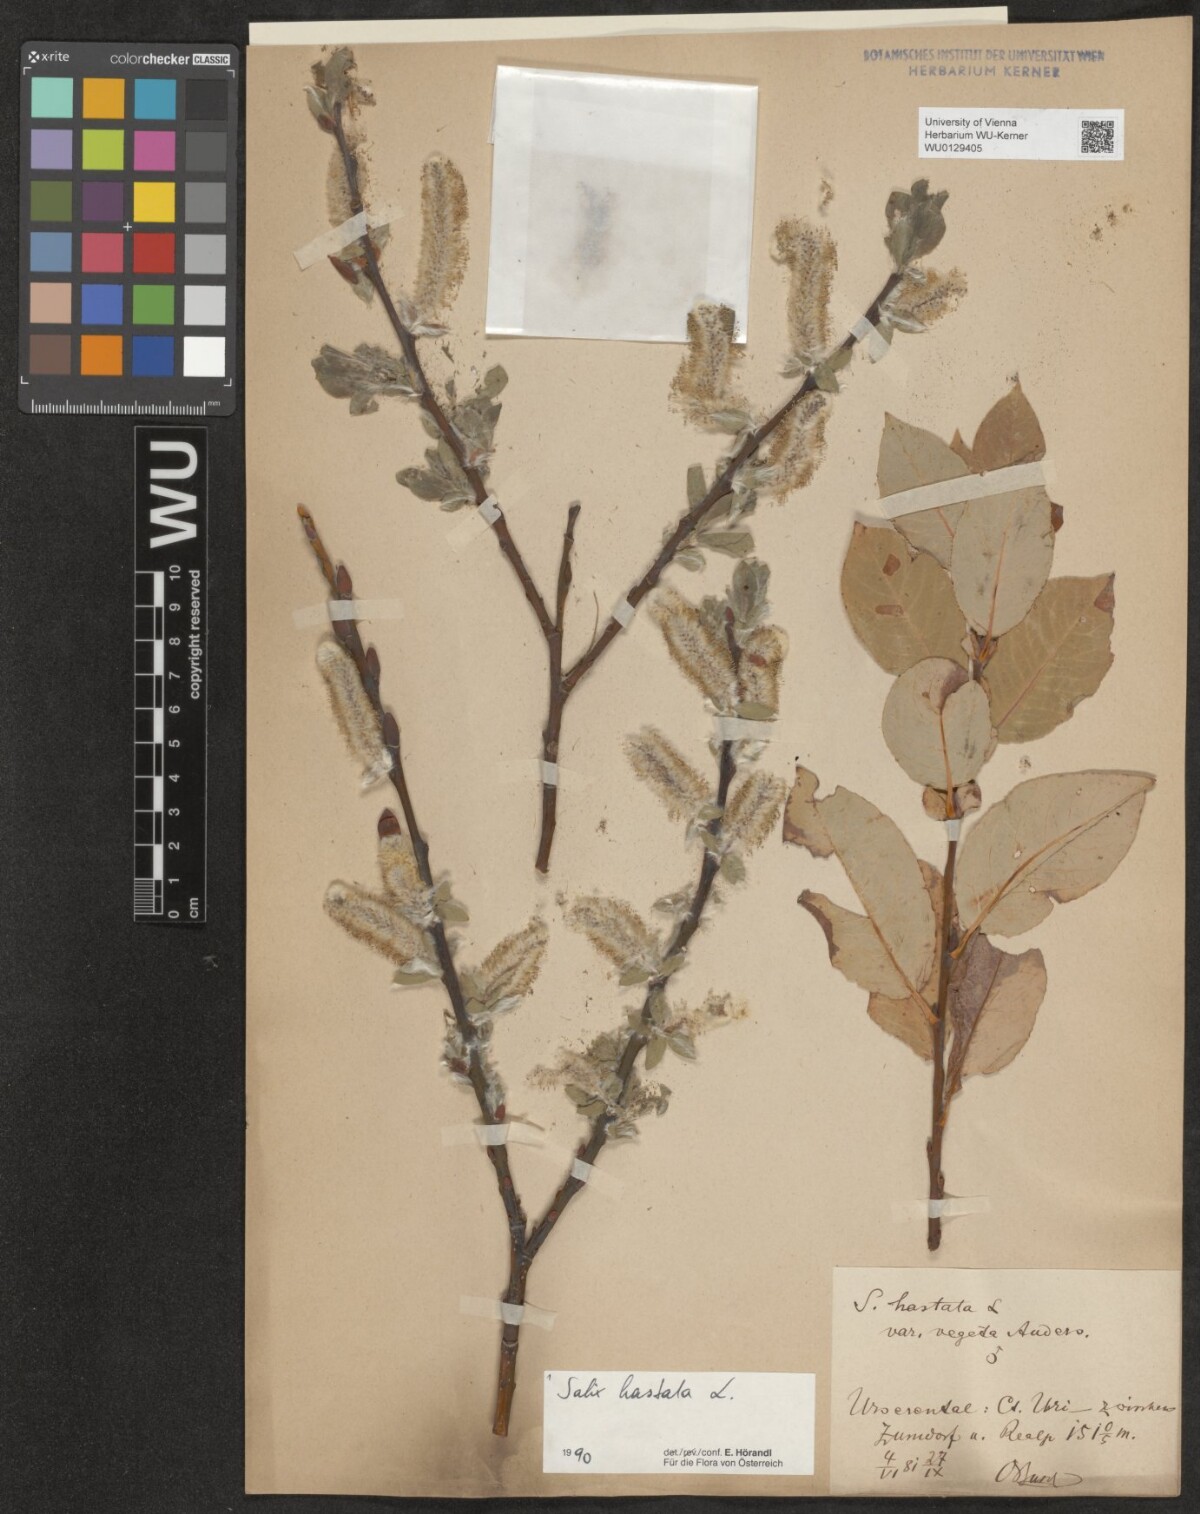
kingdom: Plantae
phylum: Tracheophyta
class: Magnoliopsida
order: Malpighiales
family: Salicaceae
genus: Salix
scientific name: Salix hastata
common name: Halberd willow
